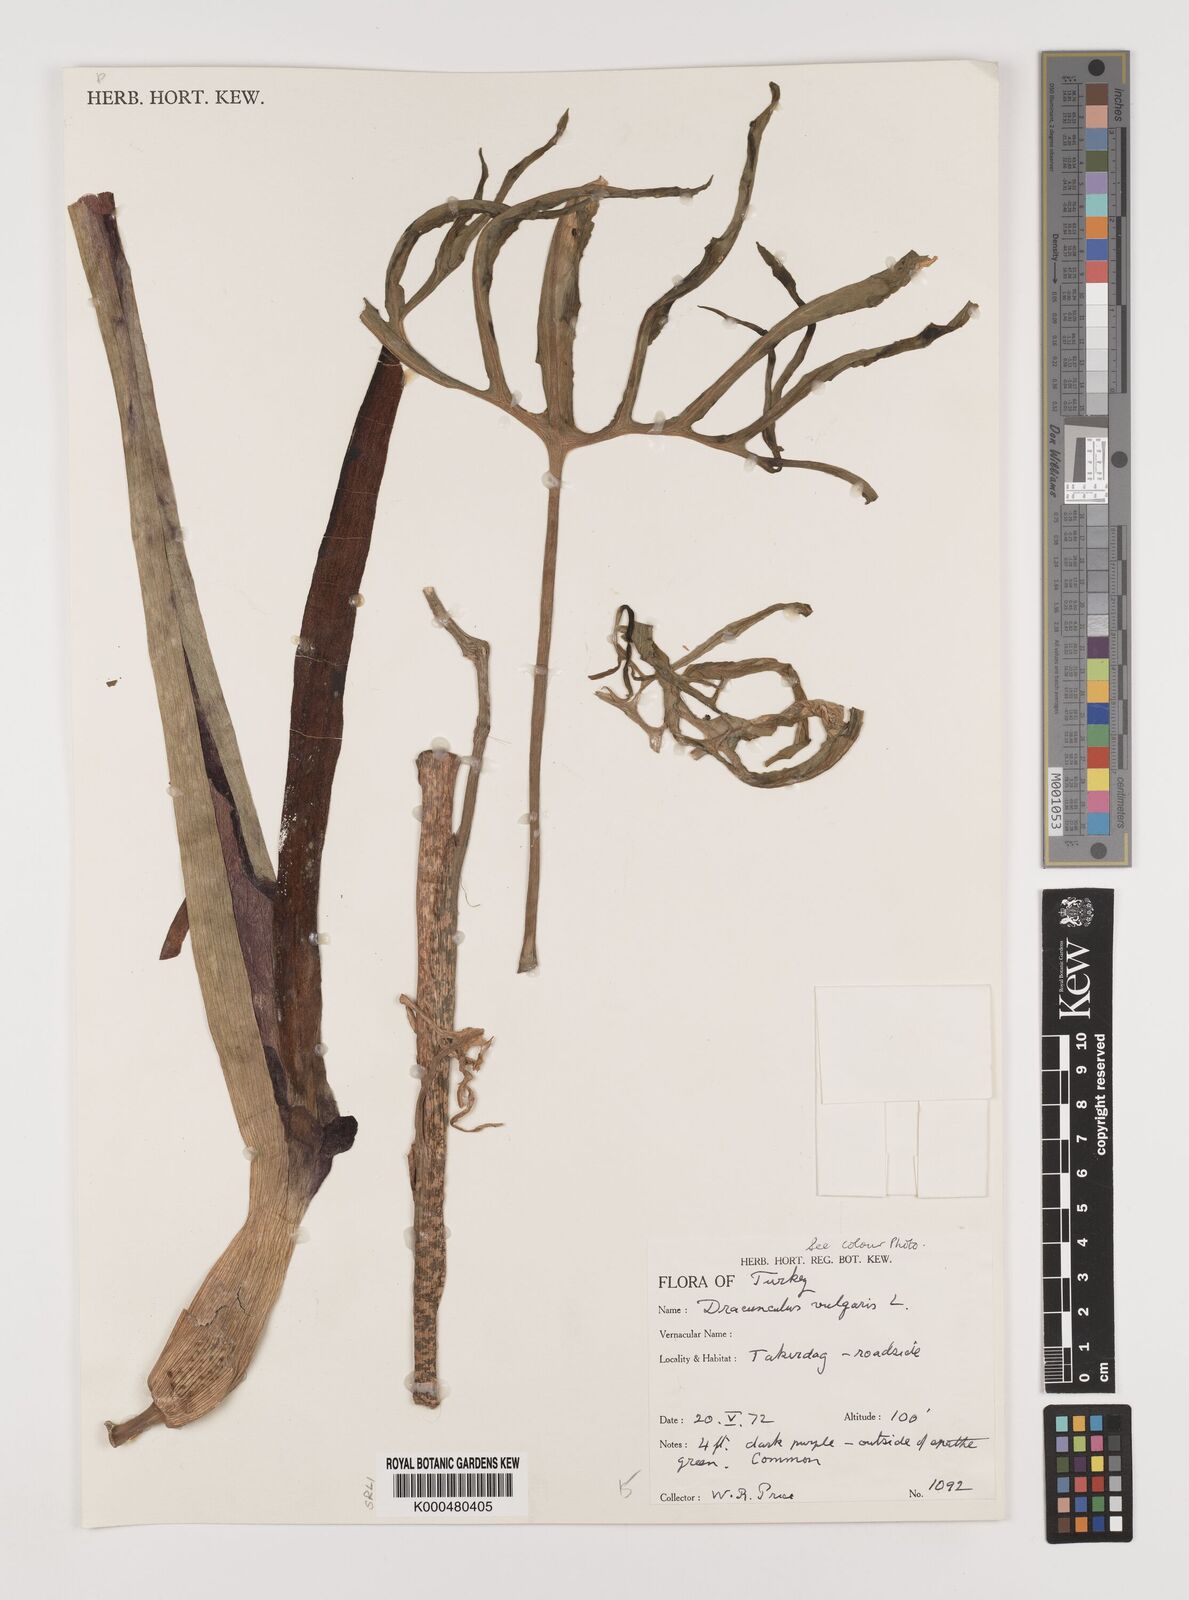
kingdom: Plantae
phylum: Tracheophyta
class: Liliopsida
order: Alismatales
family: Araceae
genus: Dracunculus
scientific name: Dracunculus vulgaris
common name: Dragon arum
